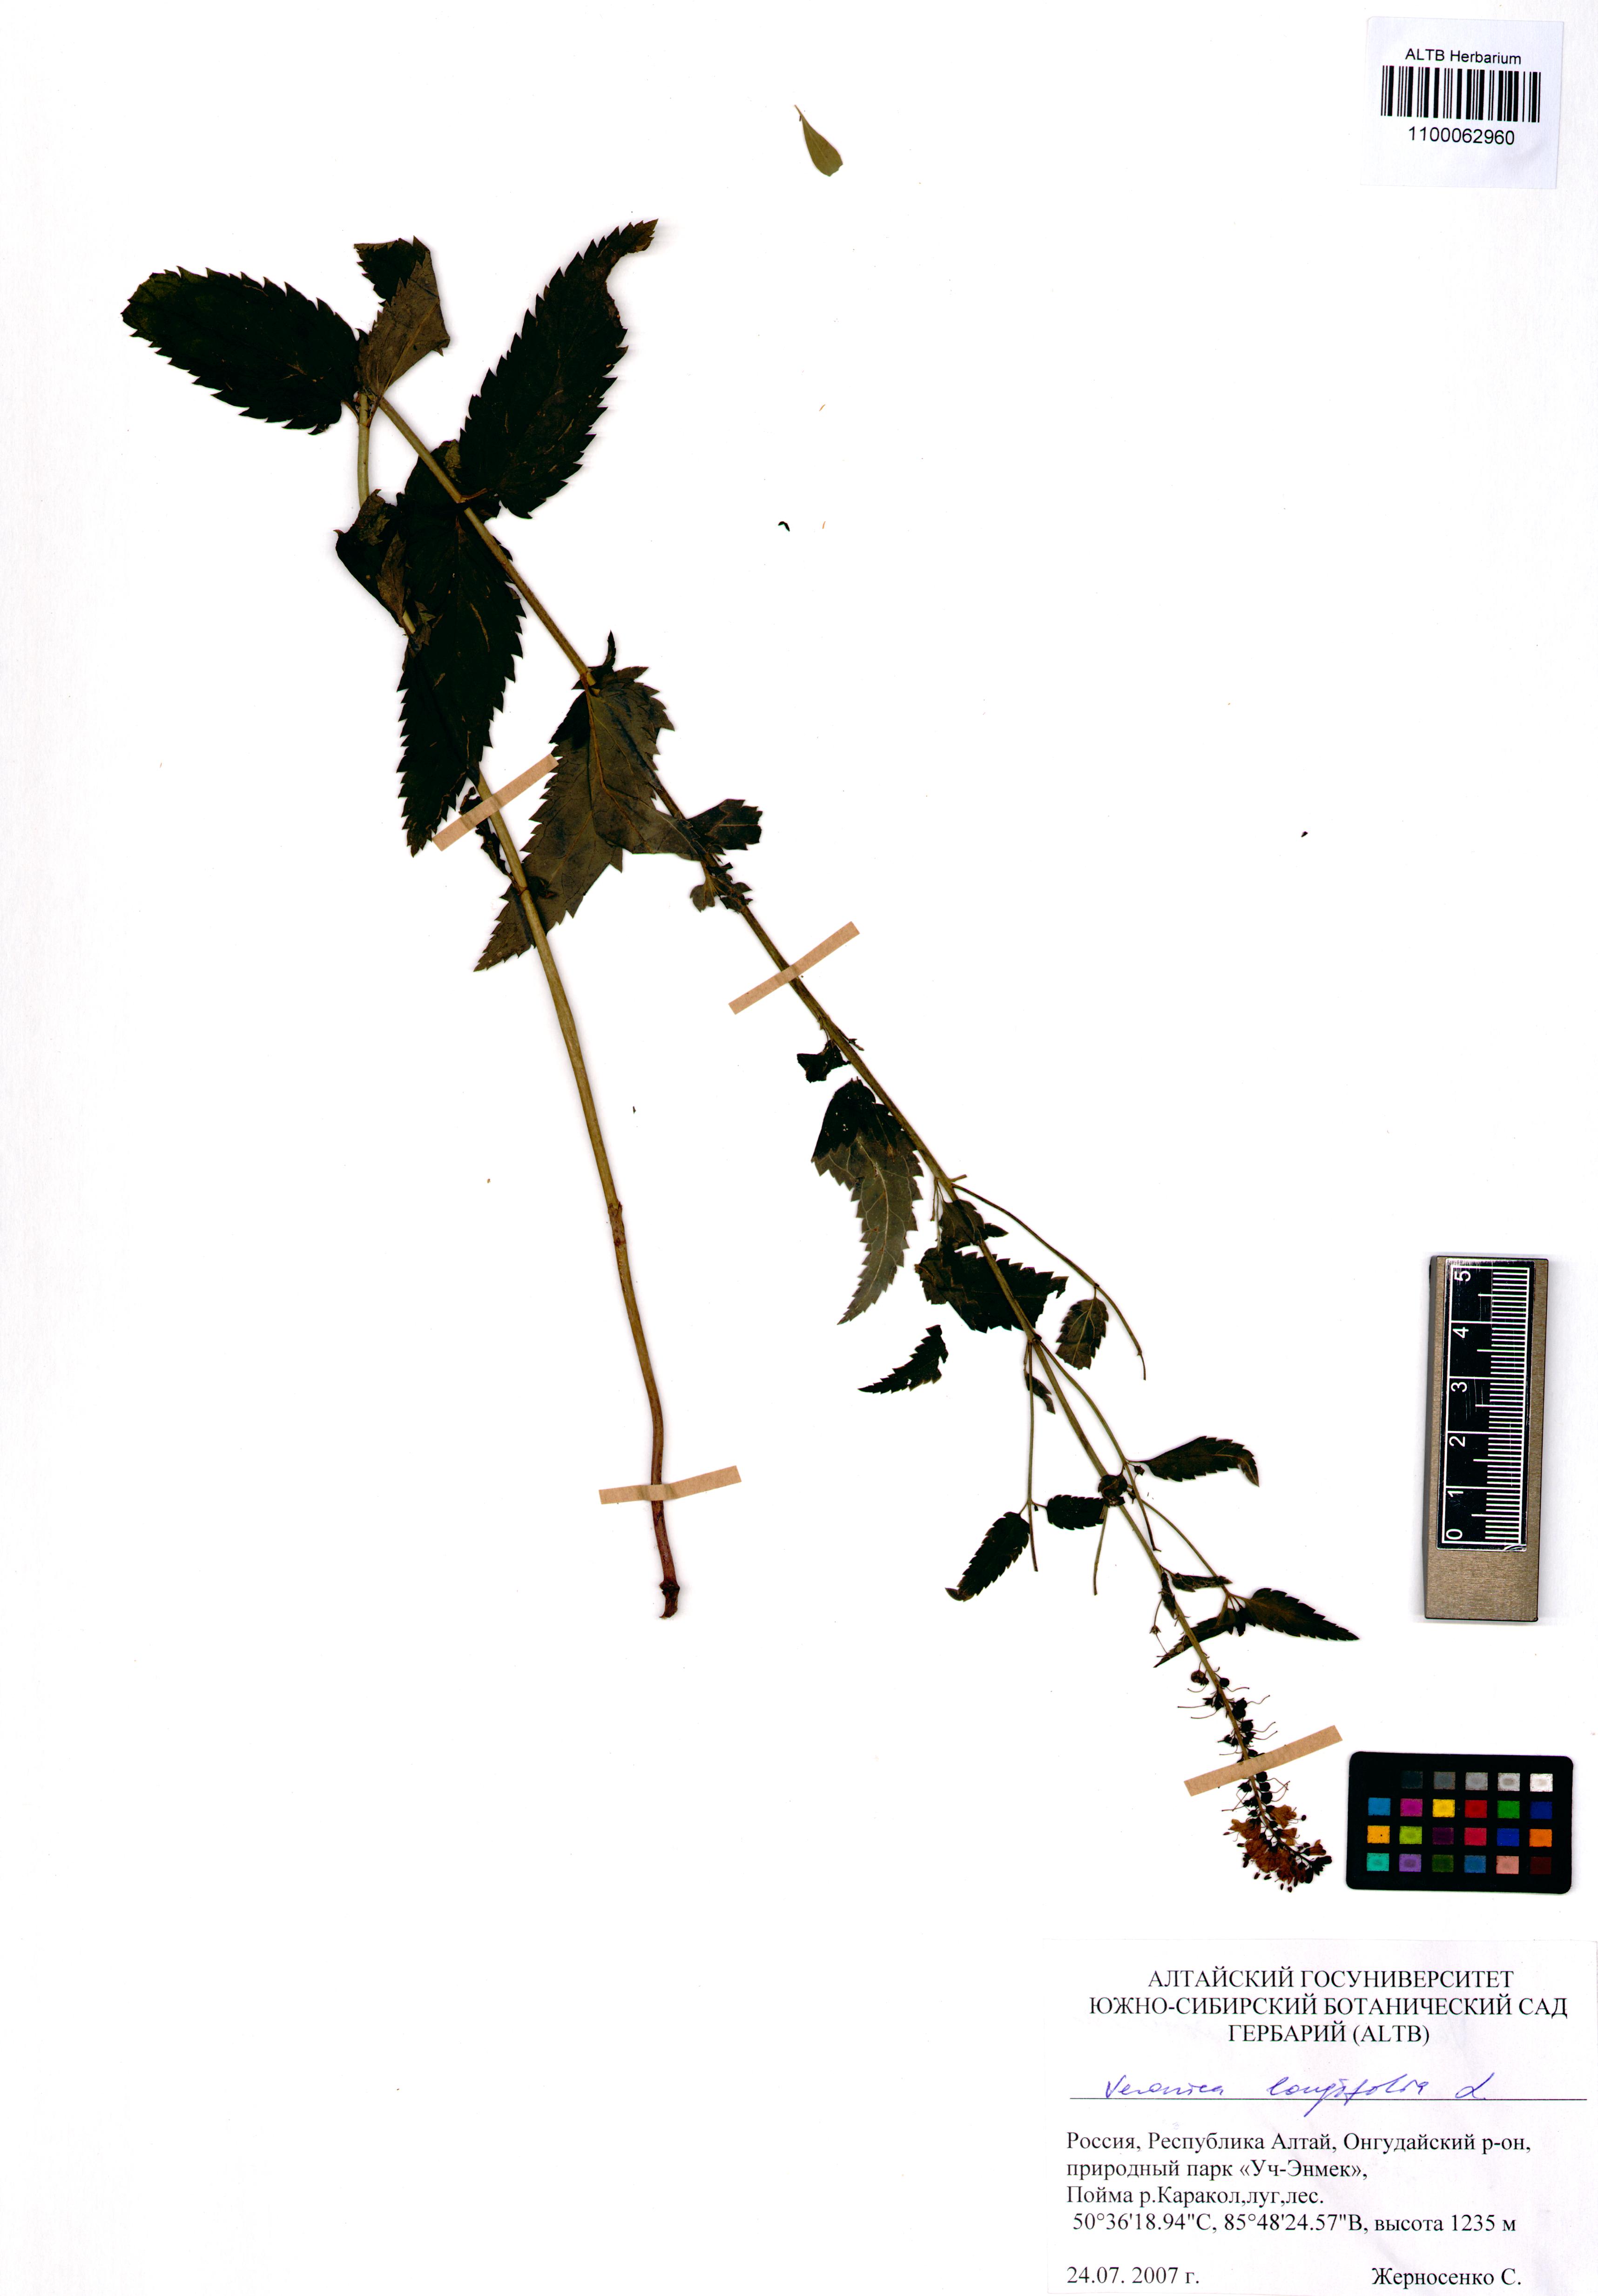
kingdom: Plantae
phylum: Tracheophyta
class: Magnoliopsida
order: Lamiales
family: Plantaginaceae
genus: Veronica
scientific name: Veronica longifolia
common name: Garden speedwell
